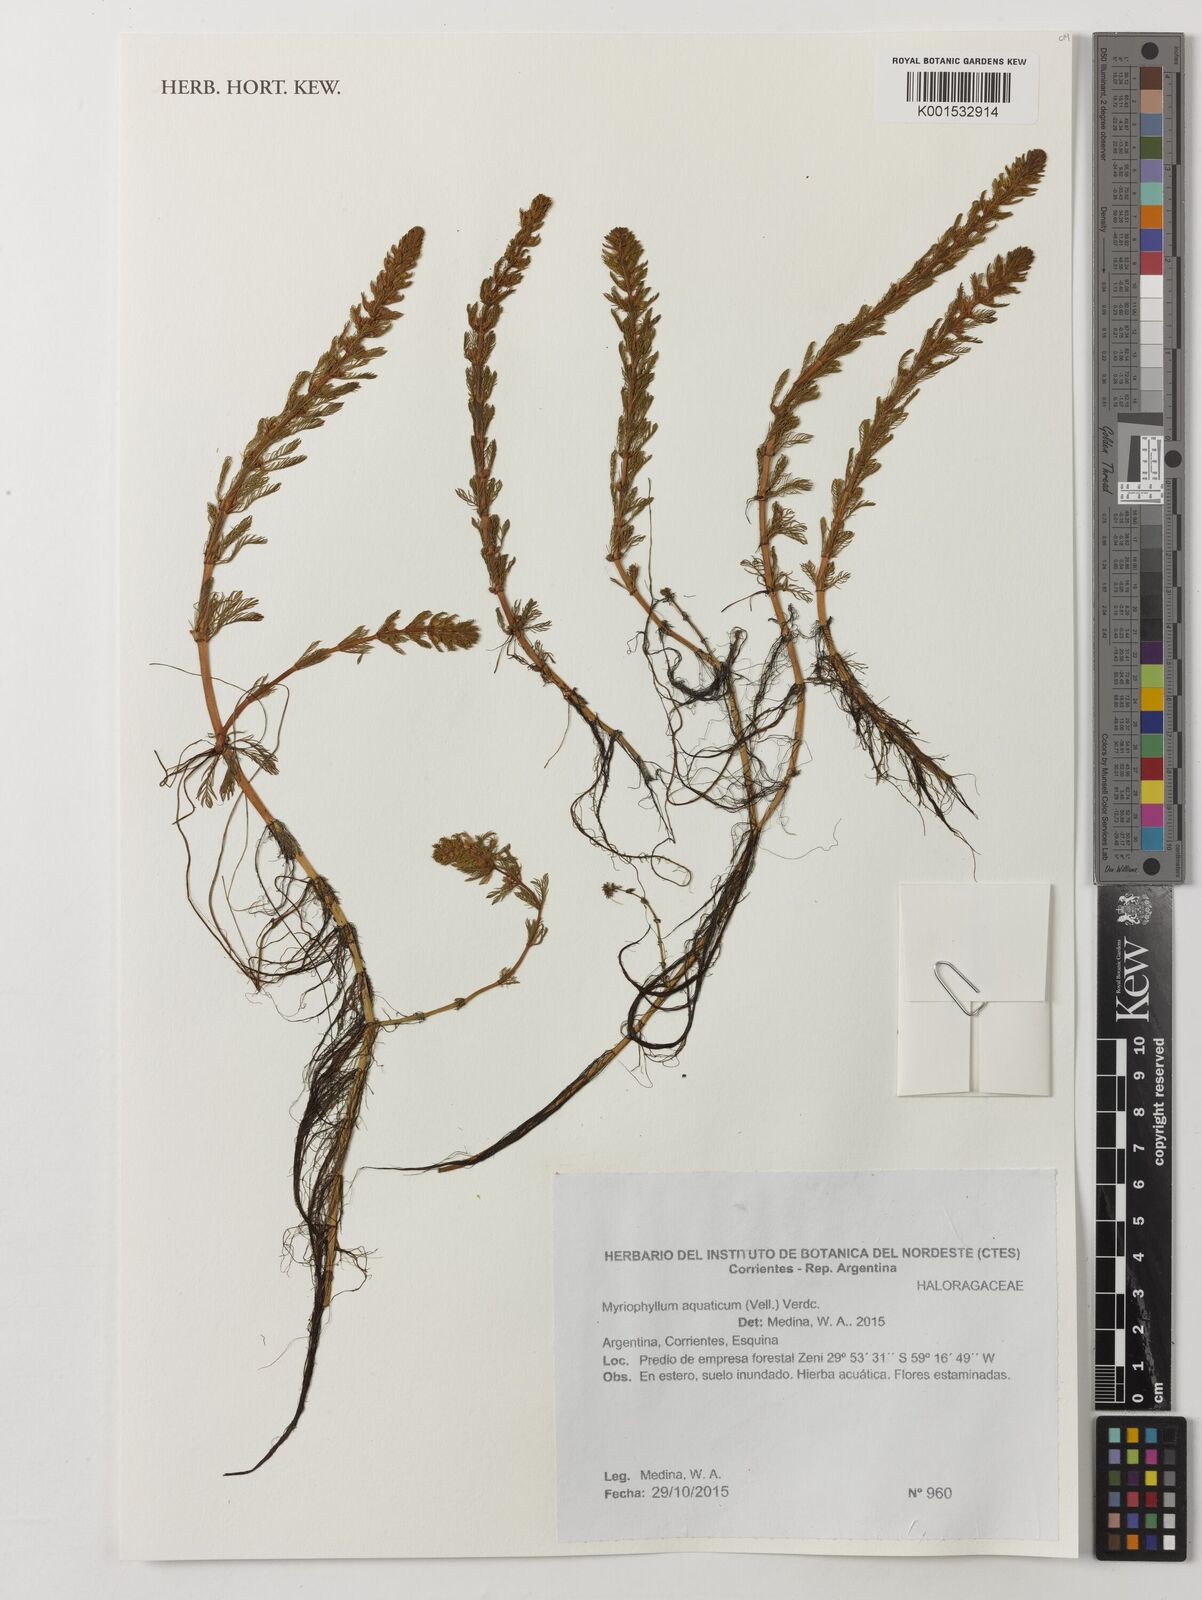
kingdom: Plantae
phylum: Tracheophyta
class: Magnoliopsida
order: Saxifragales
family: Haloragaceae
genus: Myriophyllum
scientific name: Myriophyllum aquaticum
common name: Parrot's feather
